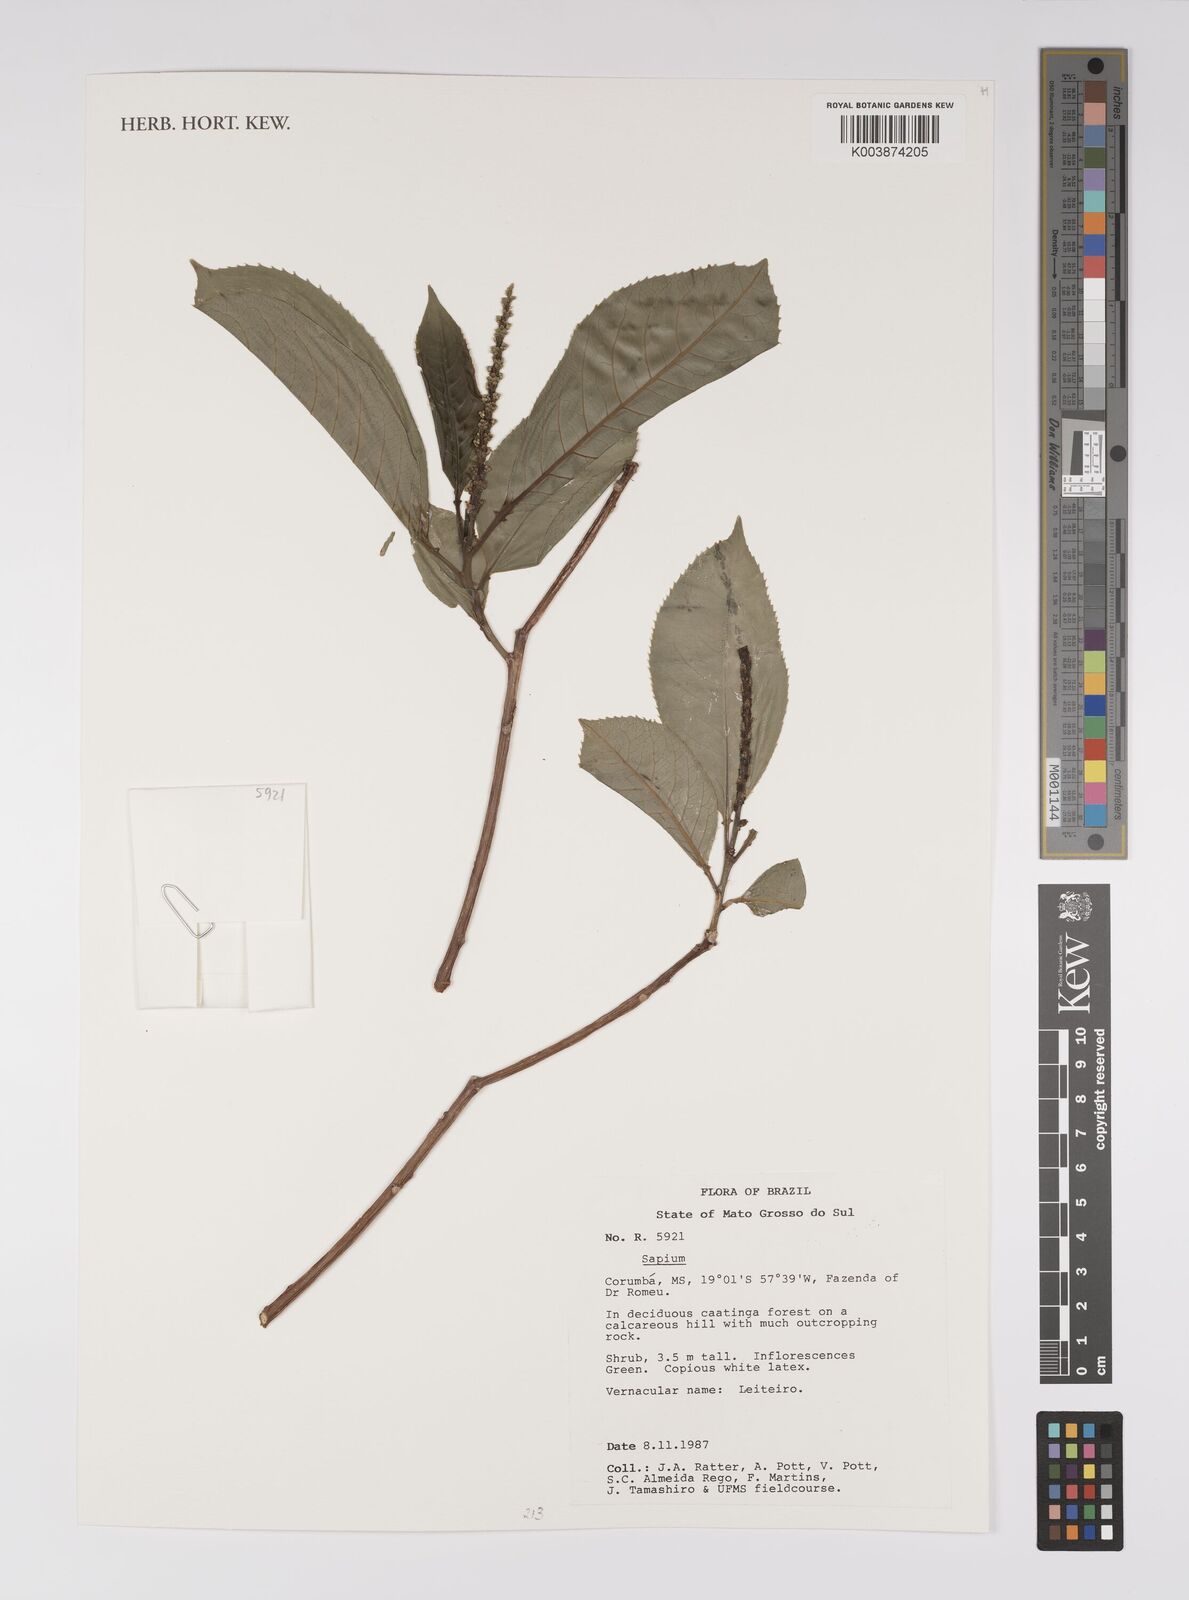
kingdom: Plantae
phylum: Tracheophyta
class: Magnoliopsida
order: Malpighiales
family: Euphorbiaceae
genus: Sapium
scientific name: Sapium
